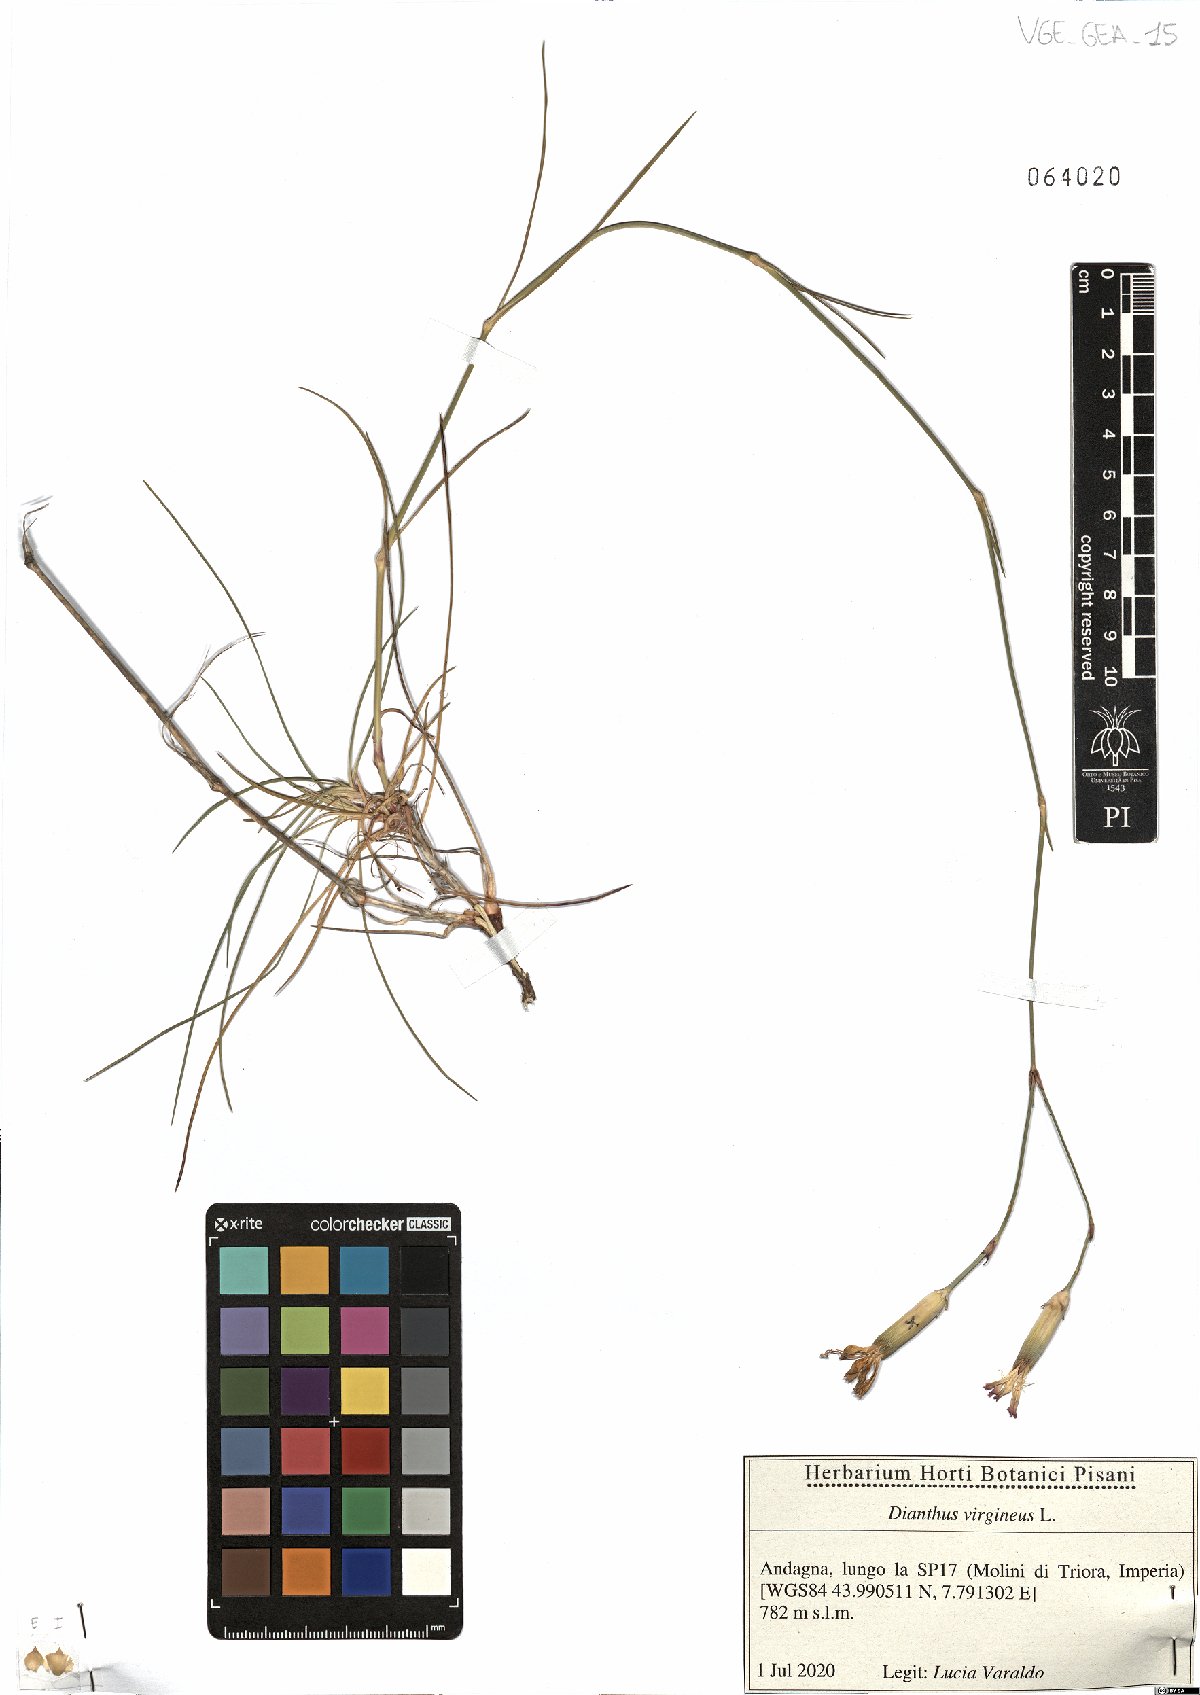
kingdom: Plantae
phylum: Tracheophyta
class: Magnoliopsida
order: Caryophyllales
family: Caryophyllaceae
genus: Dianthus
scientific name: Dianthus virgineus
